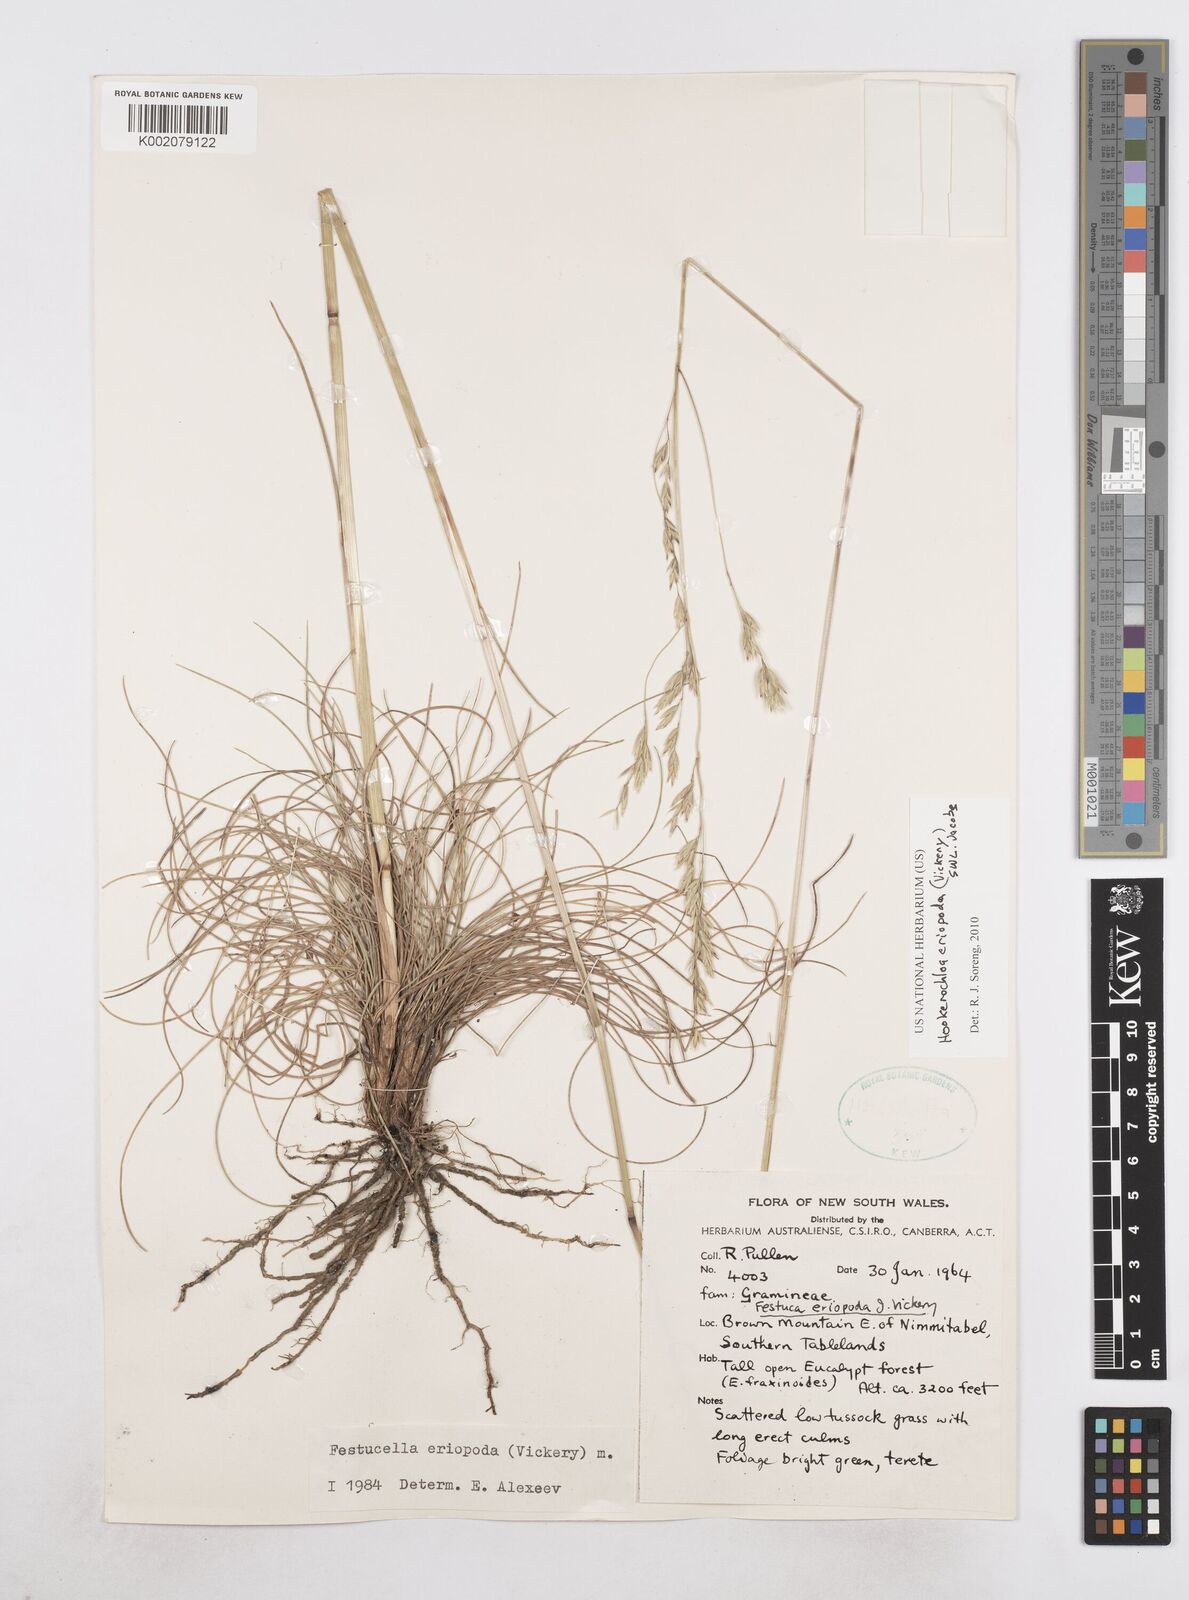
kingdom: Plantae
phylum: Tracheophyta
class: Liliopsida
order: Poales
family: Poaceae
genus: Hookerochloa
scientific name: Hookerochloa eriopoda
